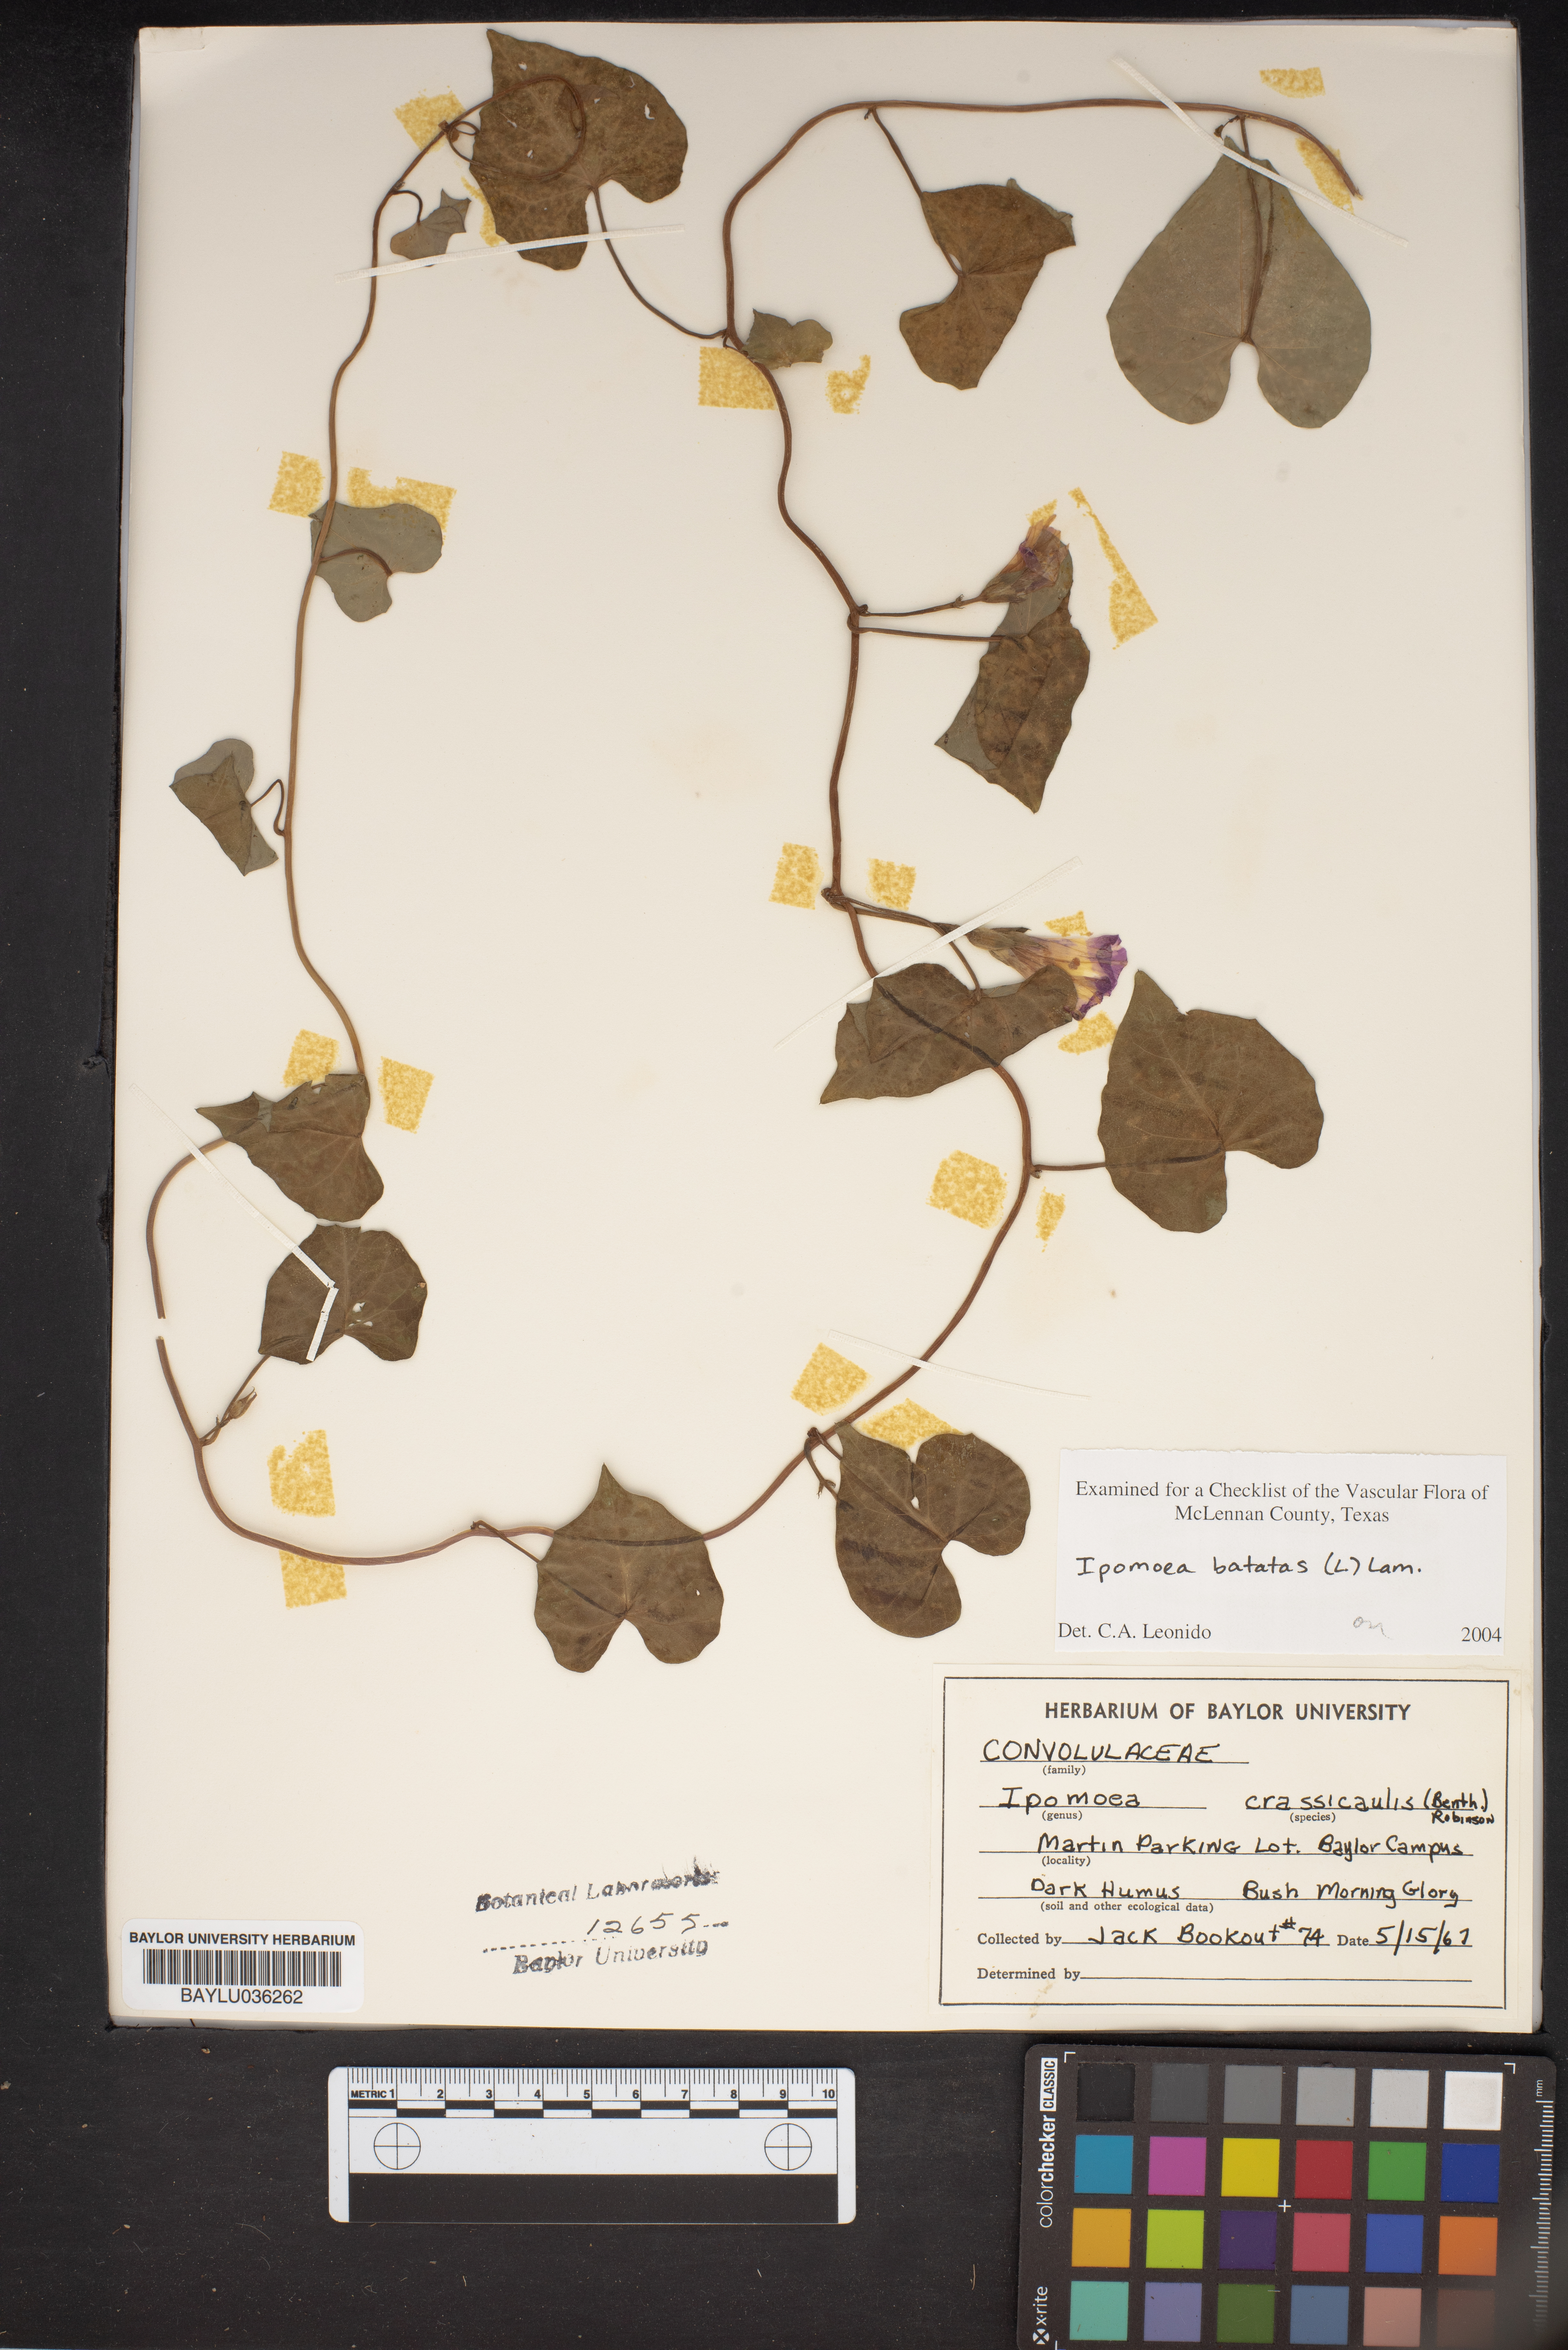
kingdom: Plantae
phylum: Tracheophyta
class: Magnoliopsida
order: Solanales
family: Convolvulaceae
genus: Ipomoea
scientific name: Ipomoea carnea
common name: Morning-glory
